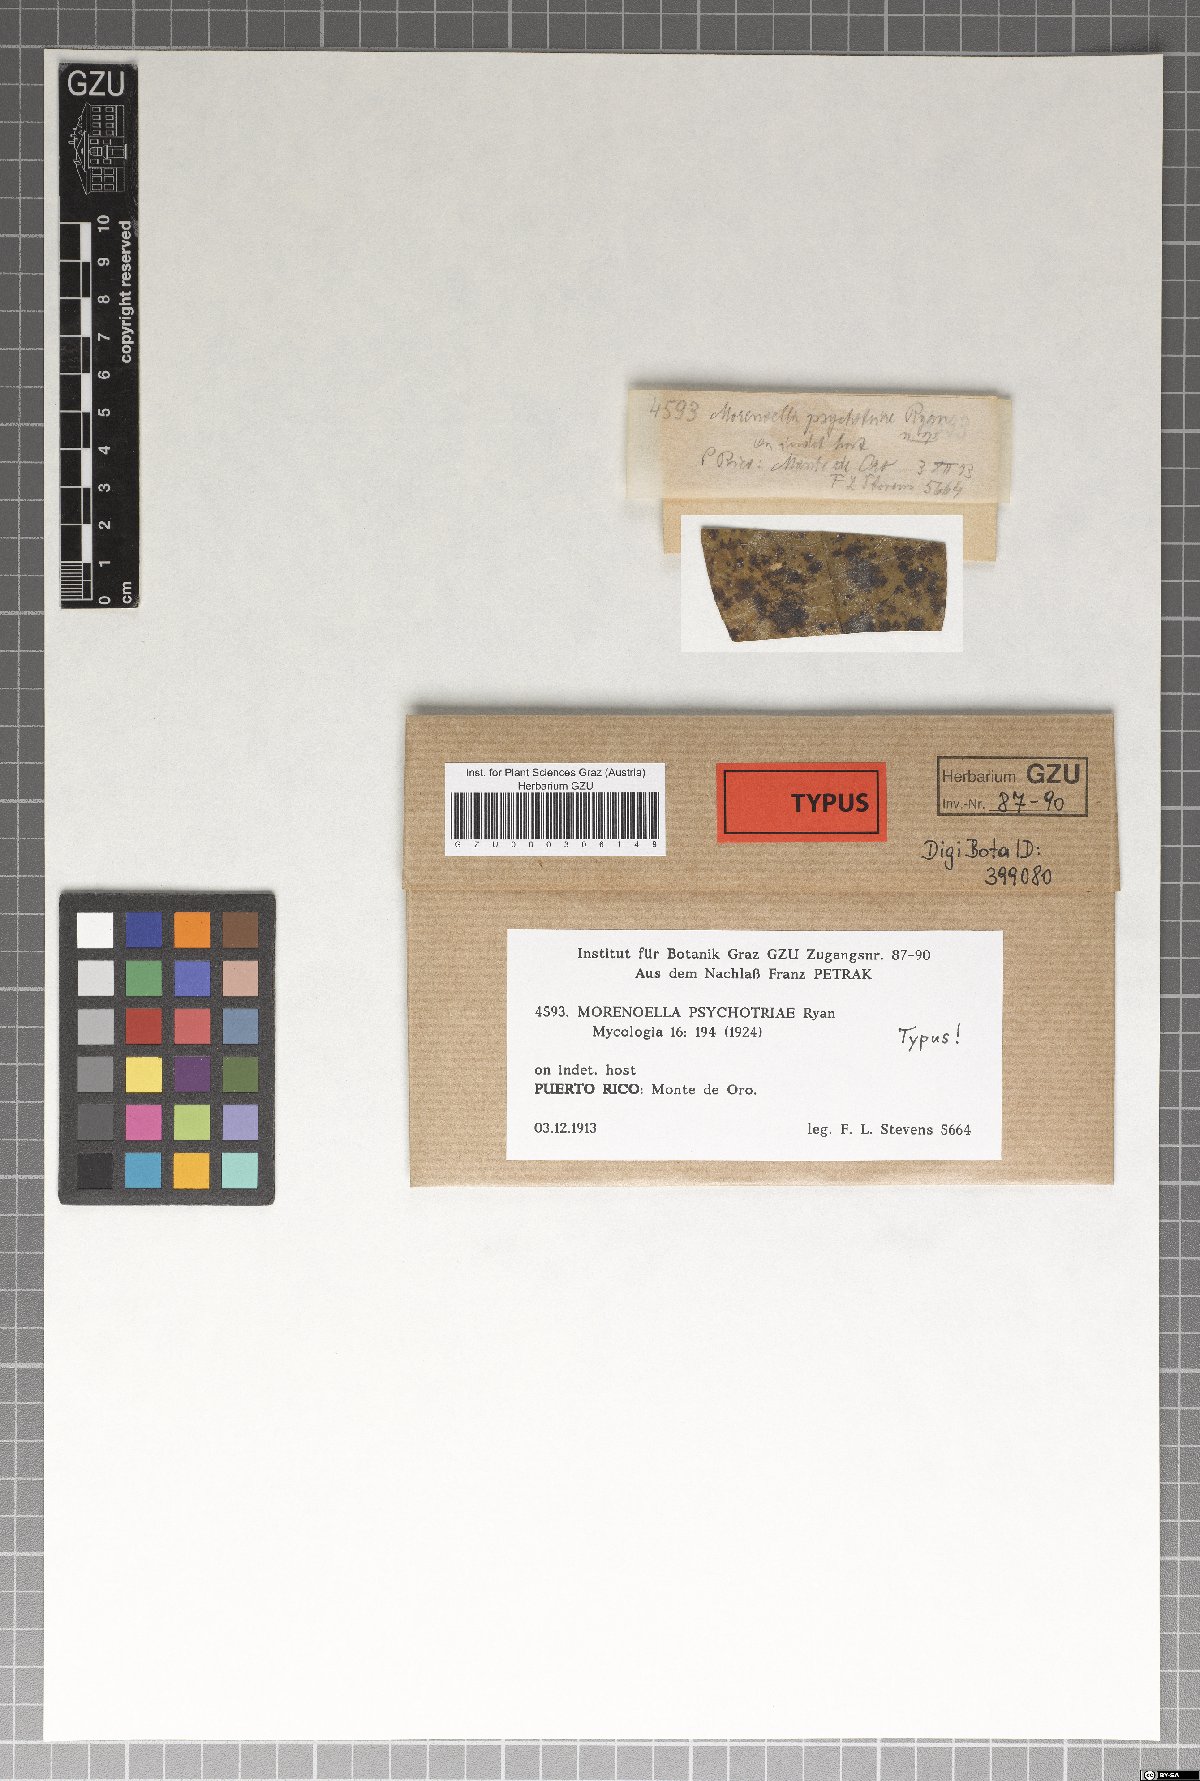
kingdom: Fungi
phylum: Ascomycota
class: Dothideomycetes
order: Asterinales
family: Asterinaceae
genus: Morenoella
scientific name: Morenoella psychotriae
